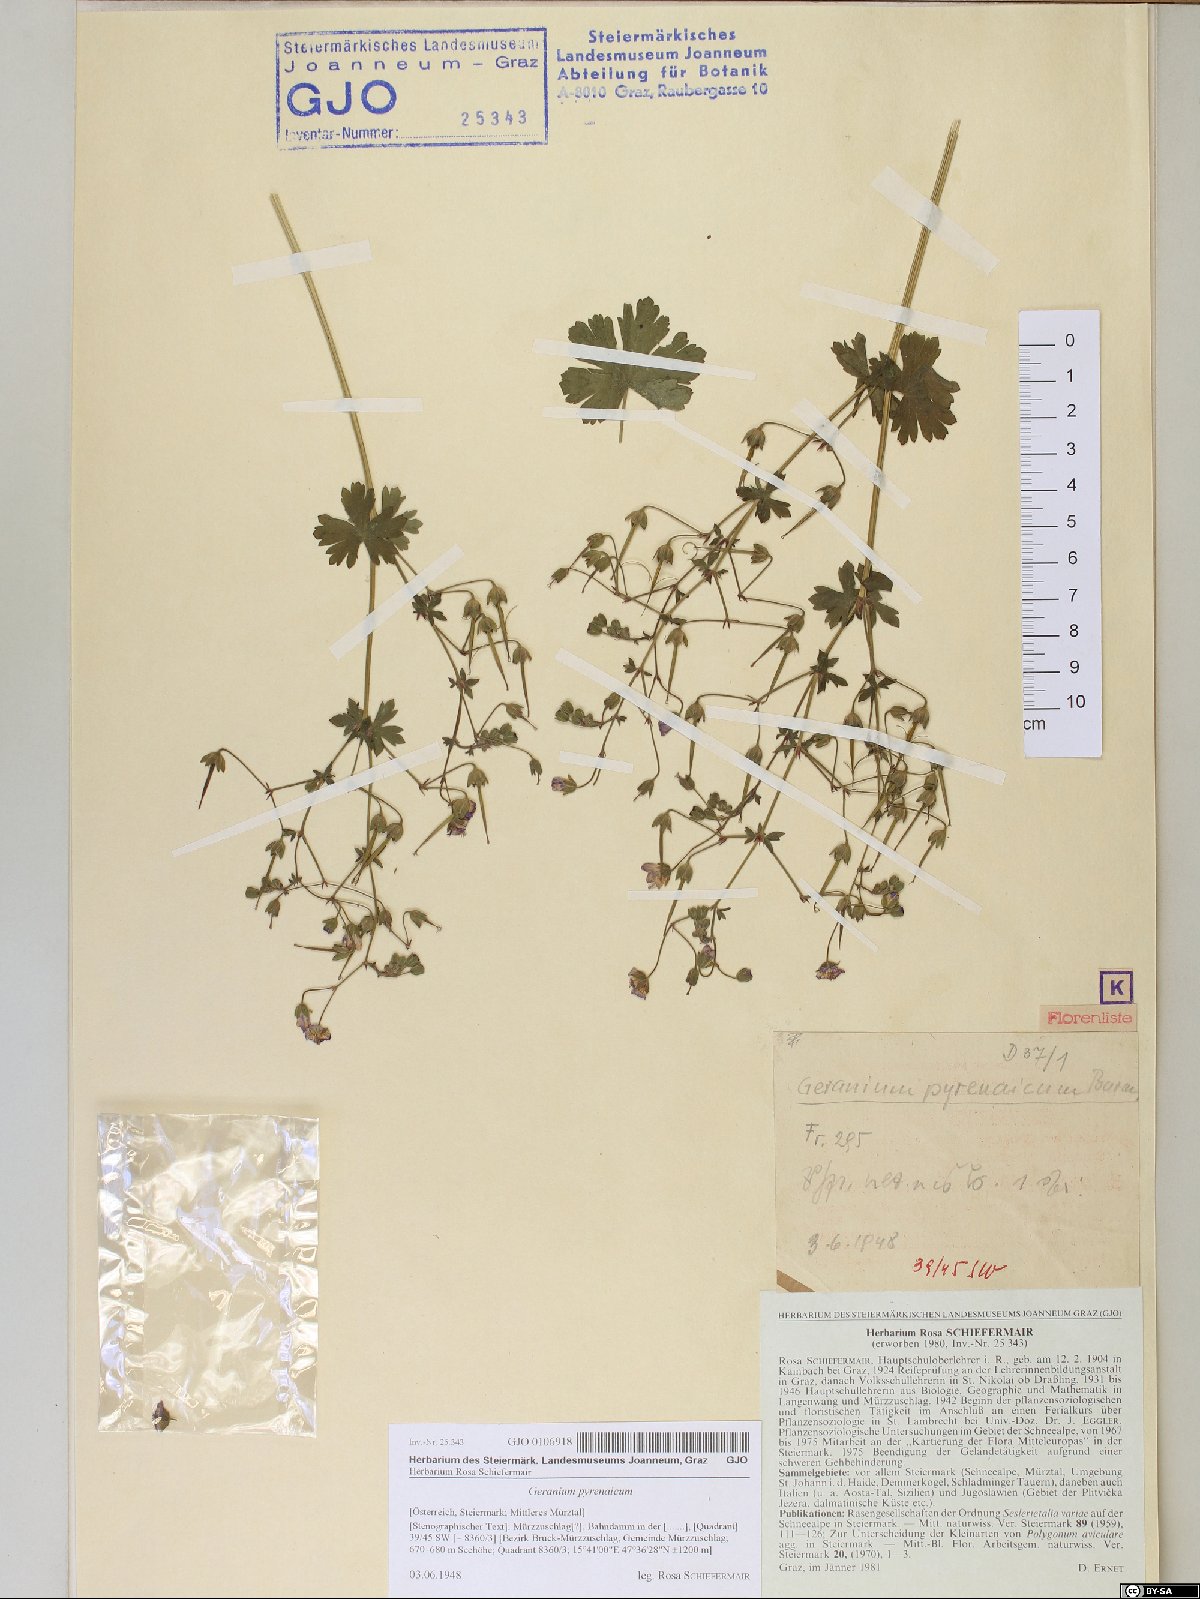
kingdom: Plantae
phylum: Tracheophyta
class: Magnoliopsida
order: Geraniales
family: Geraniaceae
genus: Geranium
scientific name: Geranium pyrenaicum
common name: Hedgerow crane's-bill
